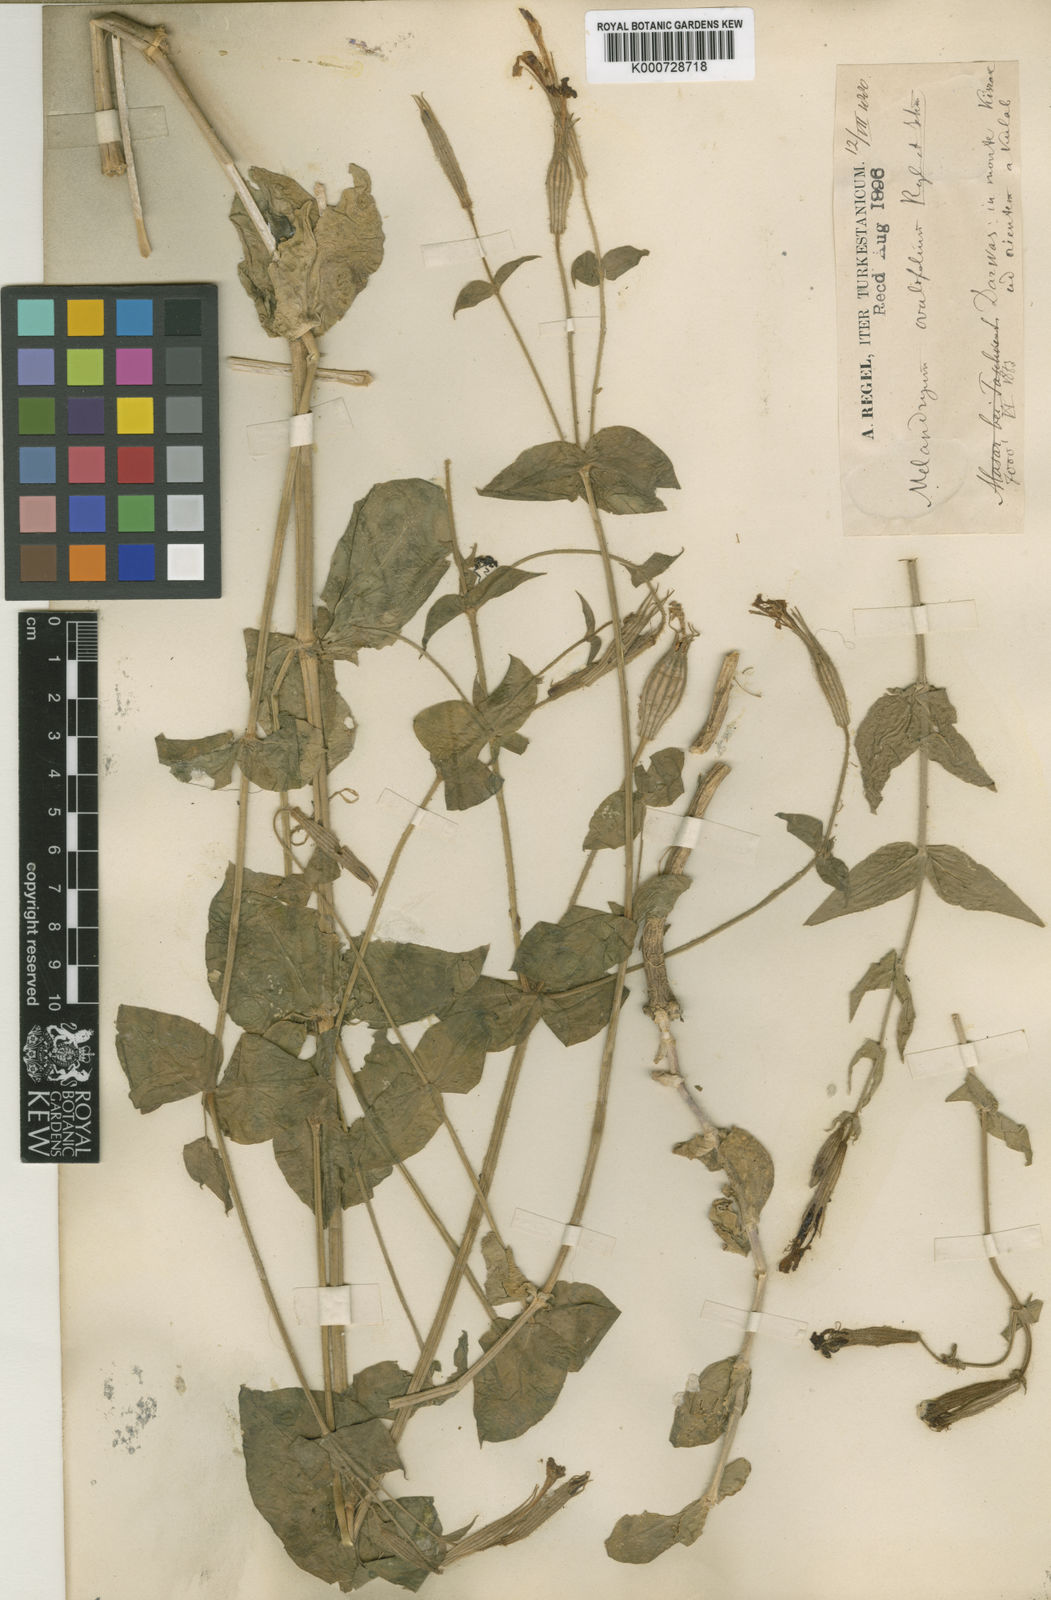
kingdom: Plantae
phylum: Tracheophyta
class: Magnoliopsida
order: Caryophyllales
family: Caryophyllaceae
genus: Silene
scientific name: Silene
